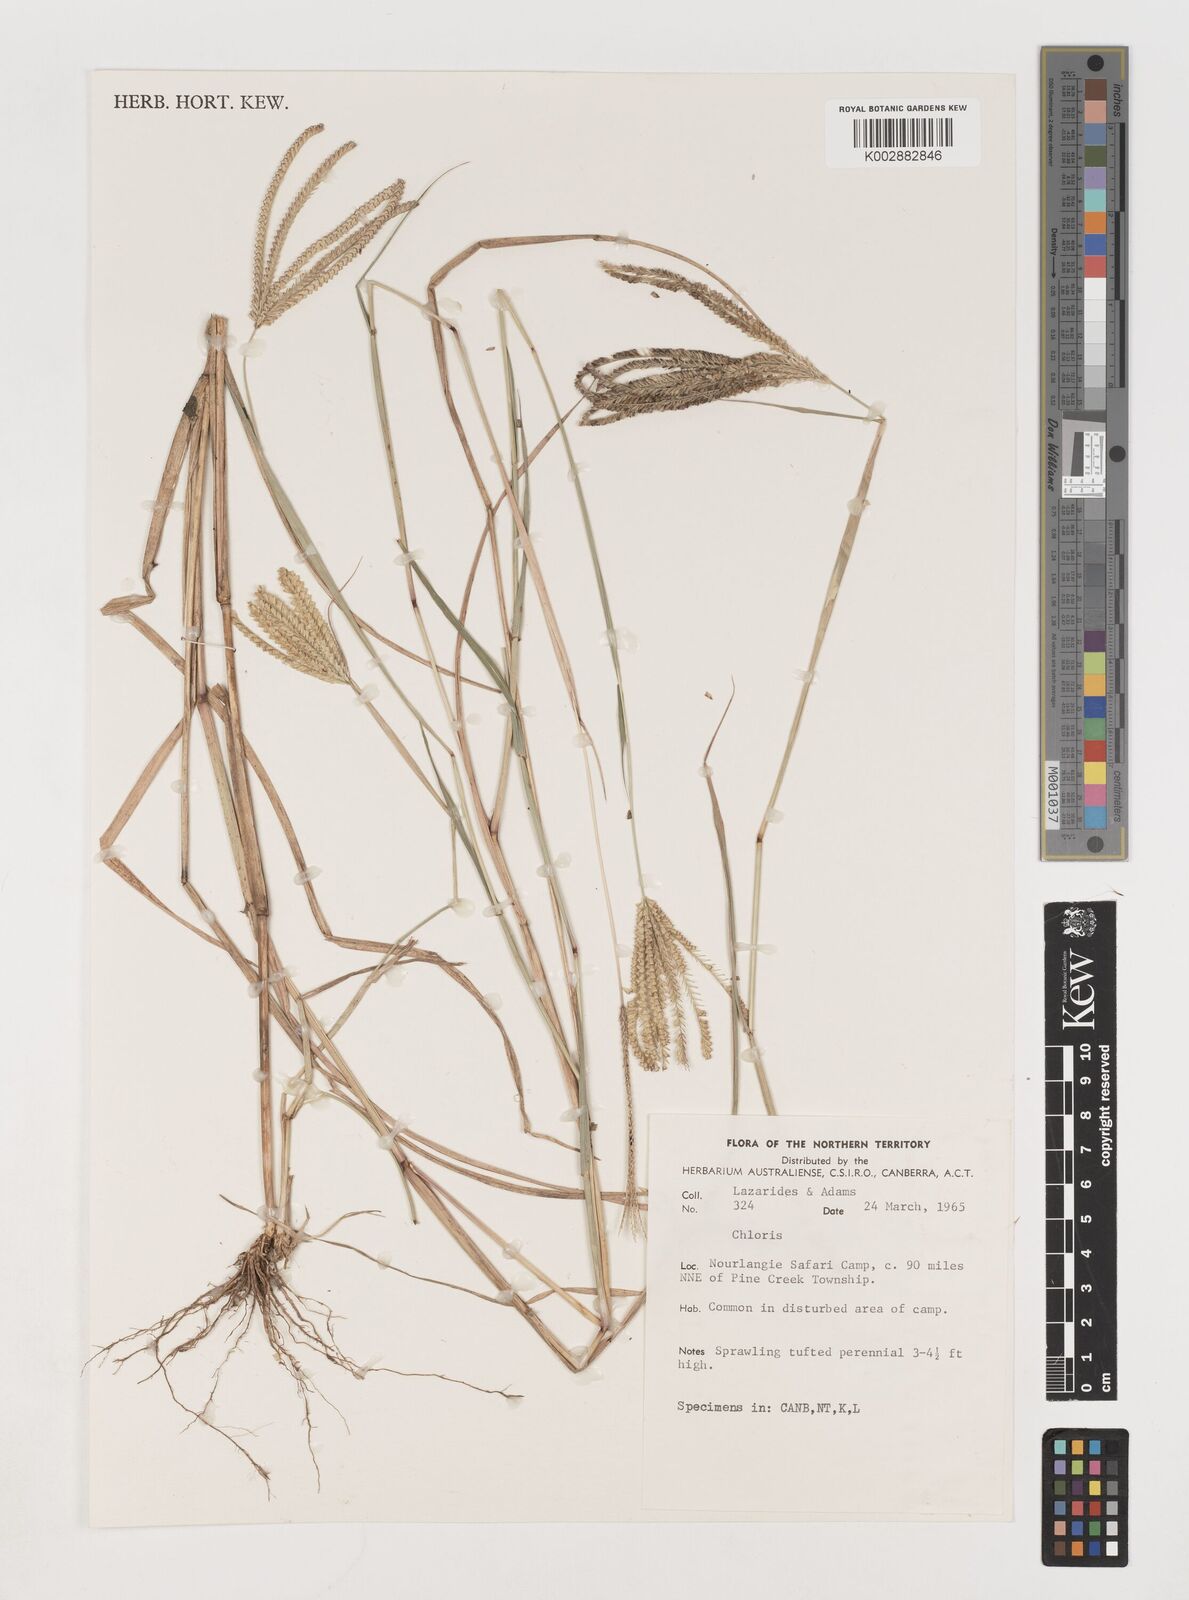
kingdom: Plantae
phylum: Tracheophyta
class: Liliopsida
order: Poales
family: Poaceae
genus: Chloris
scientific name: Chloris
